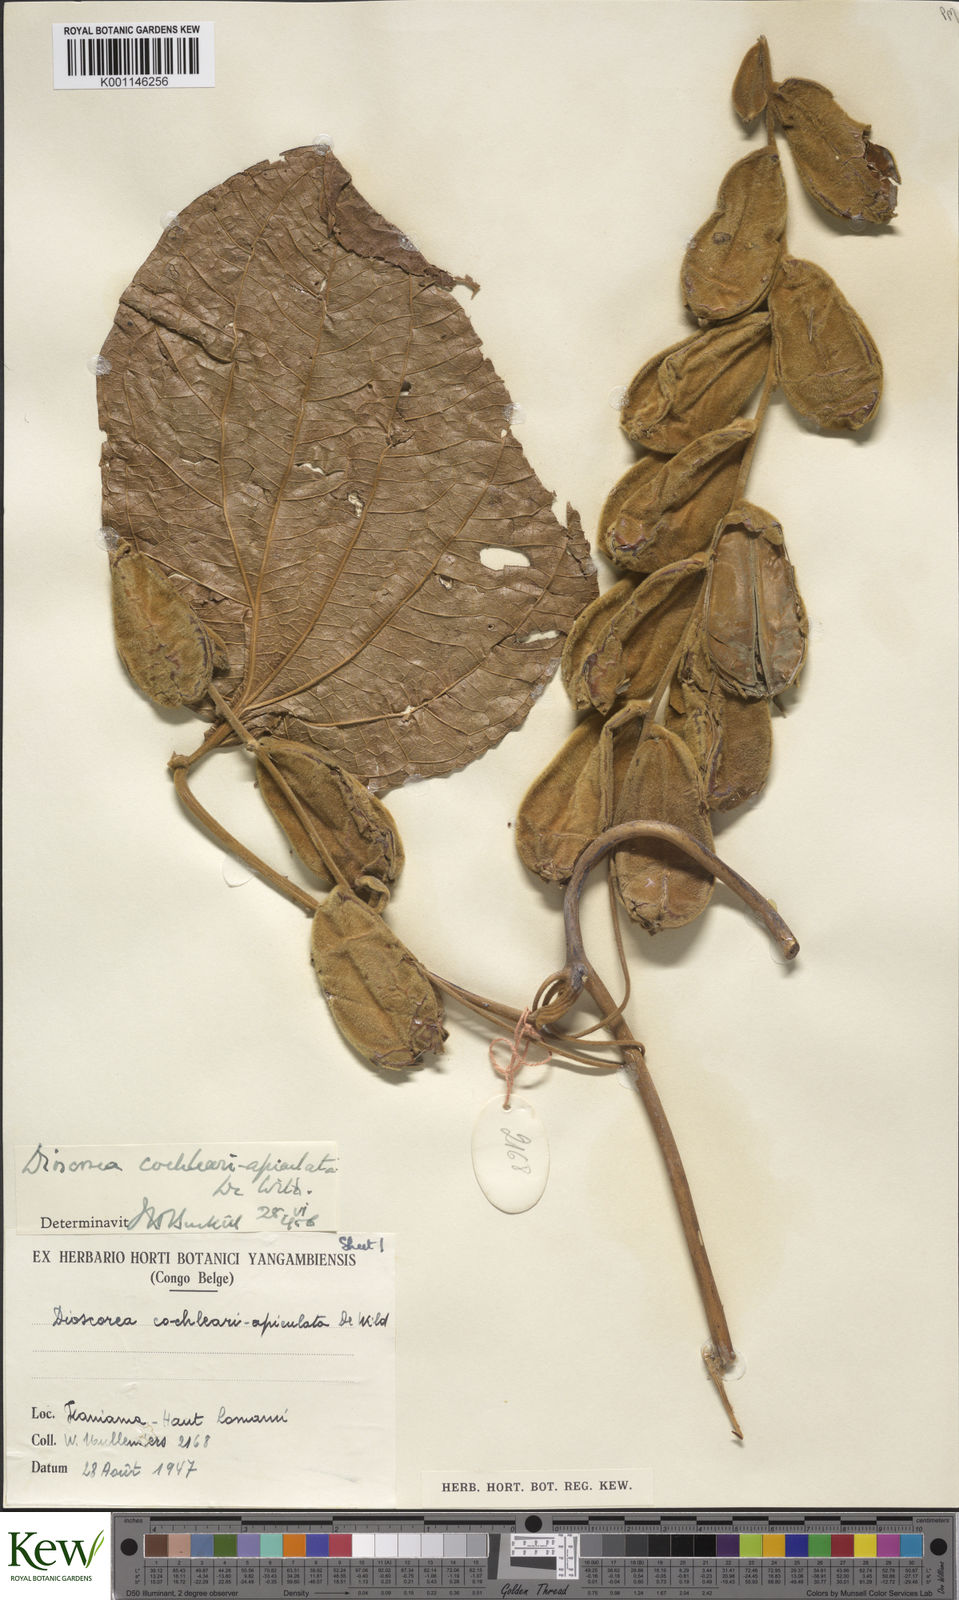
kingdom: Plantae
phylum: Tracheophyta
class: Liliopsida
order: Dioscoreales
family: Dioscoreaceae
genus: Dioscorea
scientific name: Dioscorea cochleariapiculata
